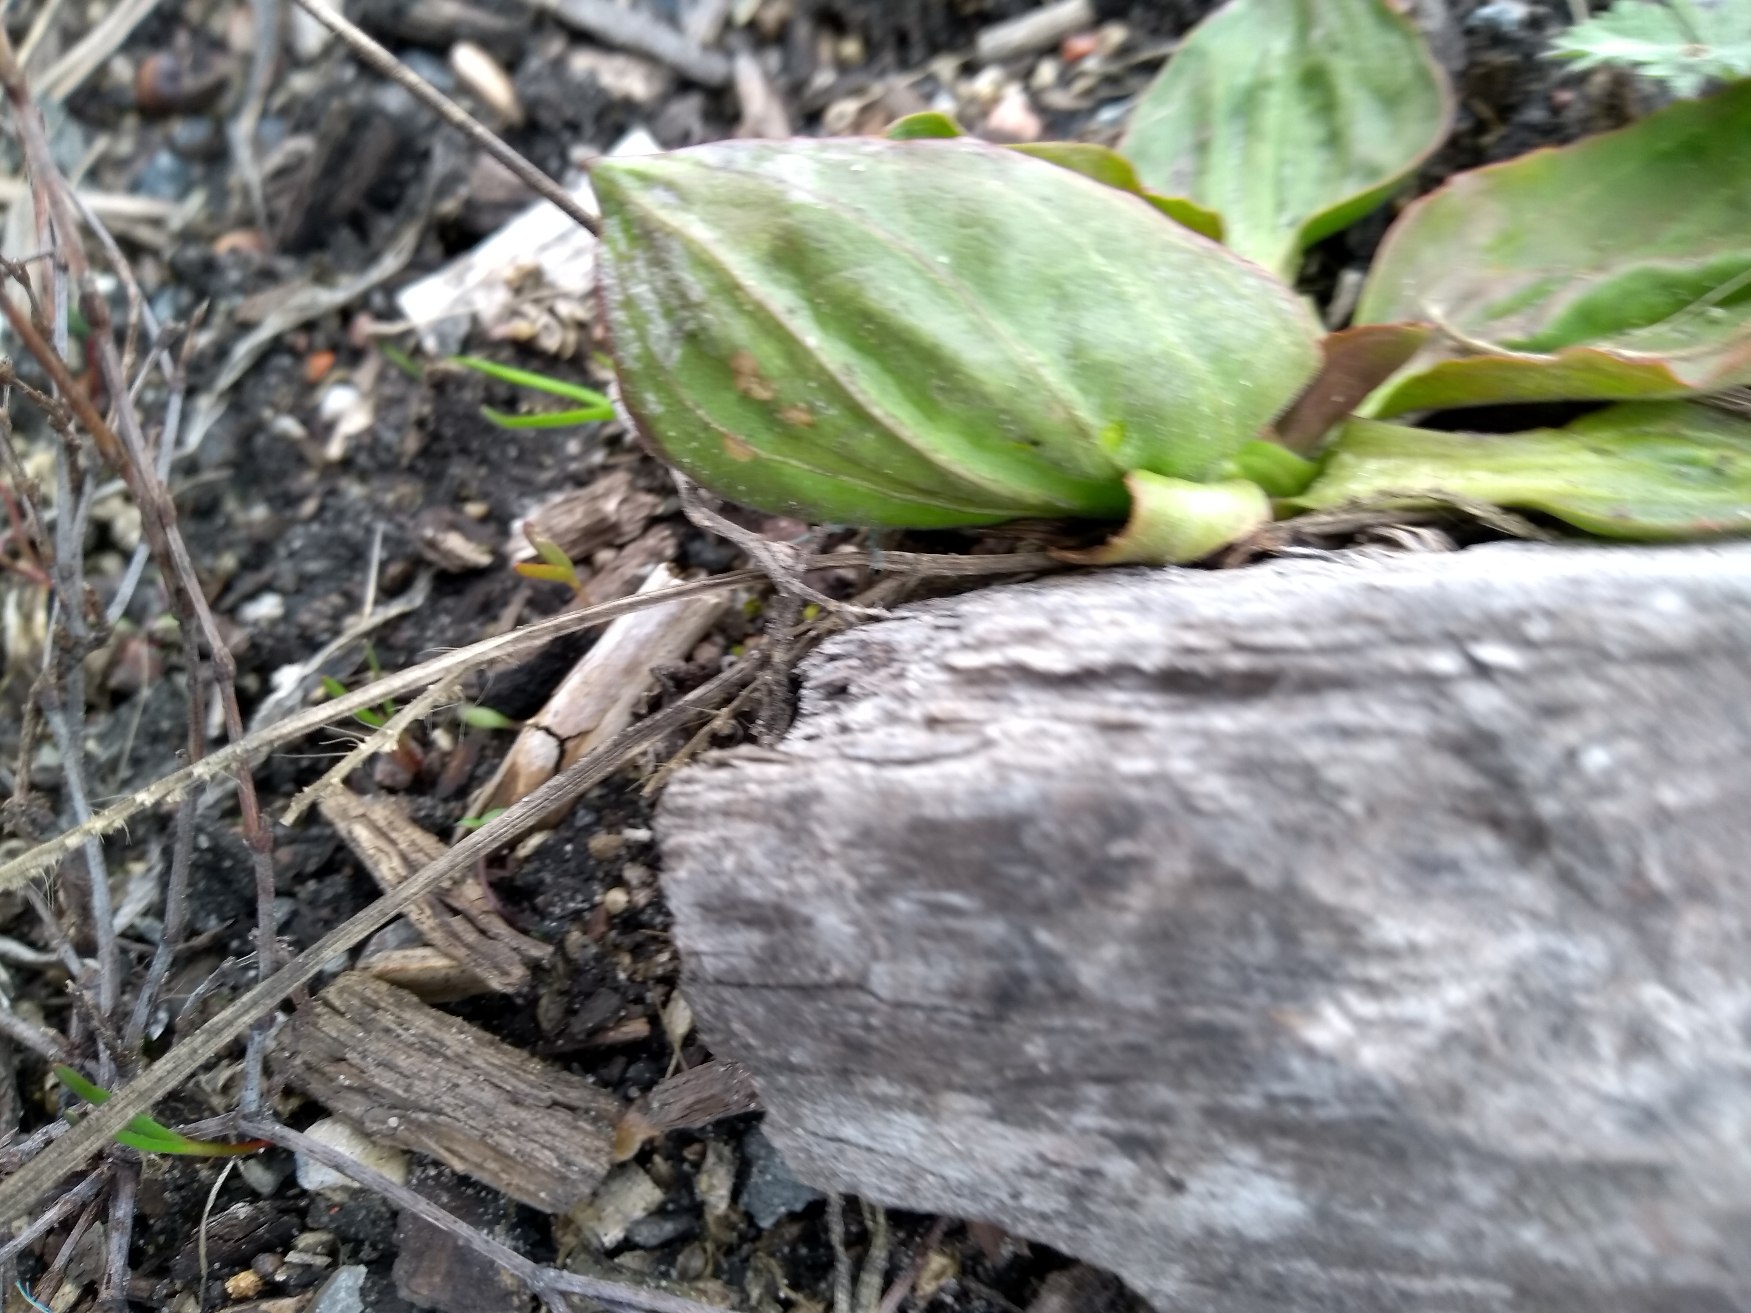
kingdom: Plantae
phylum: Tracheophyta
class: Magnoliopsida
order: Lamiales
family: Plantaginaceae
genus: Plantago
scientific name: Plantago major
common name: Glat vejbred
